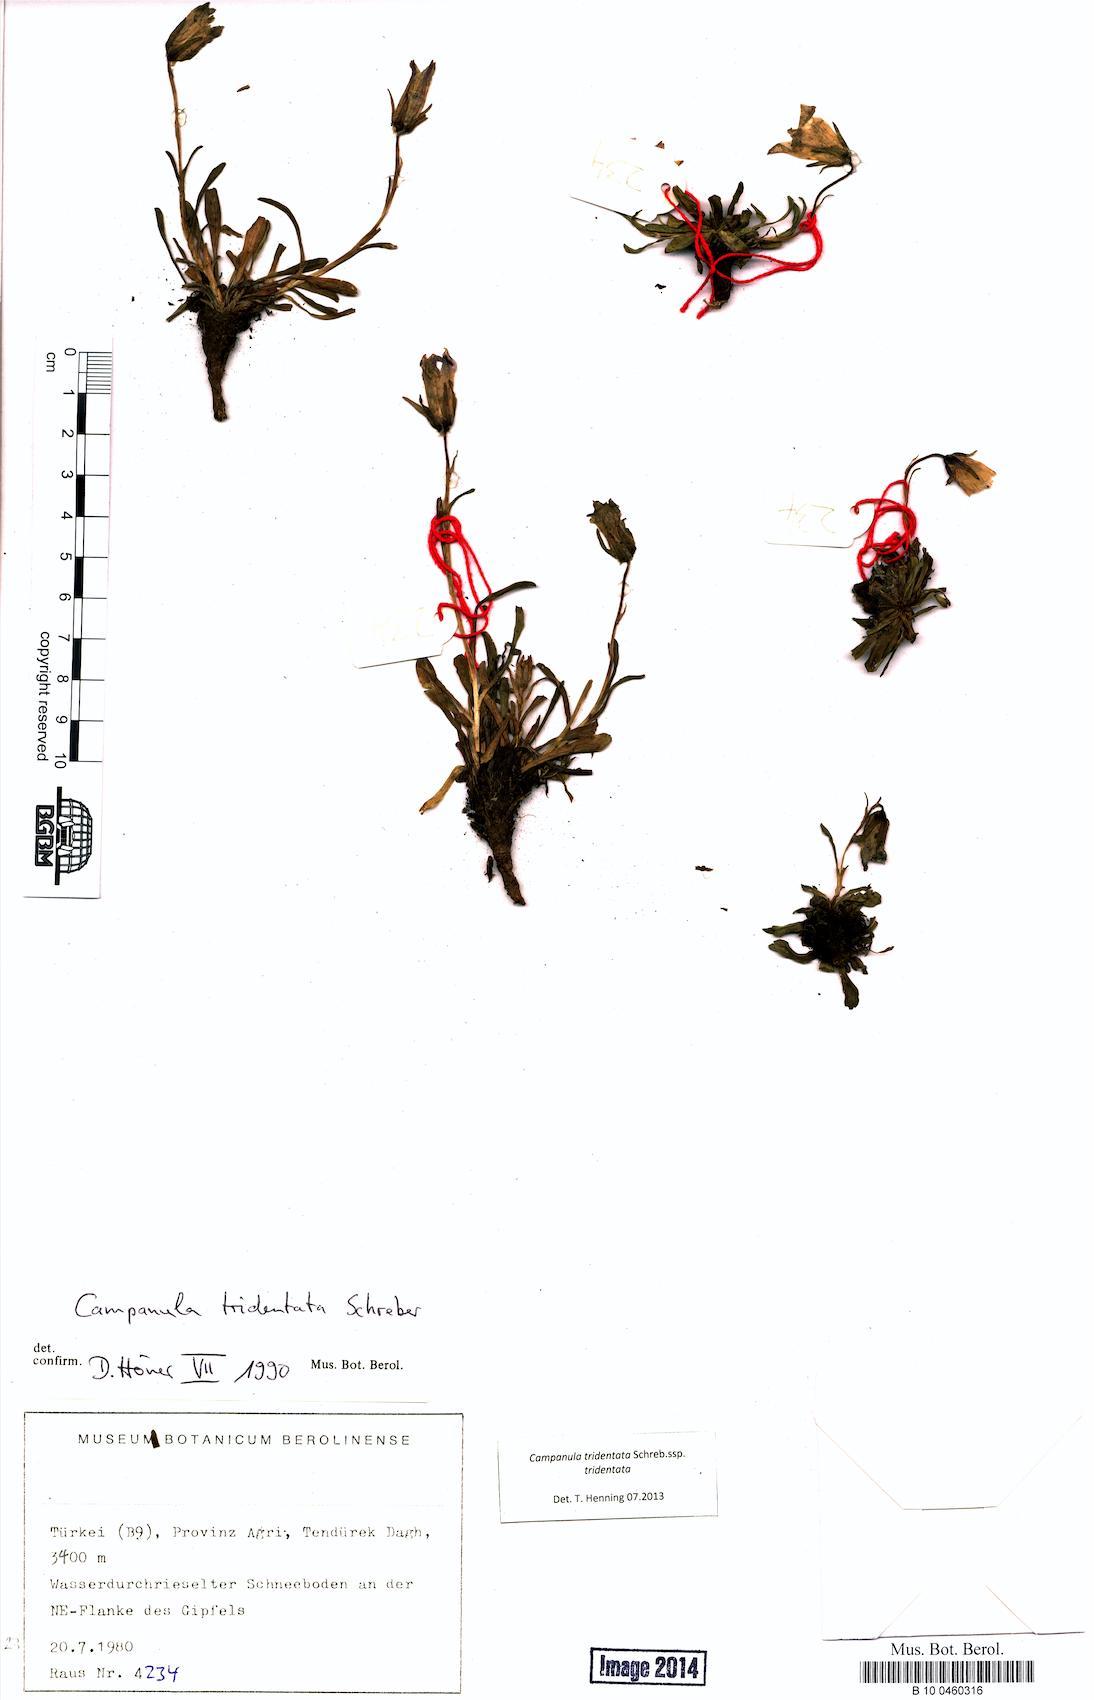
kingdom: Plantae
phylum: Tracheophyta
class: Magnoliopsida
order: Asterales
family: Campanulaceae
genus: Campanula
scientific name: Campanula tridentata
